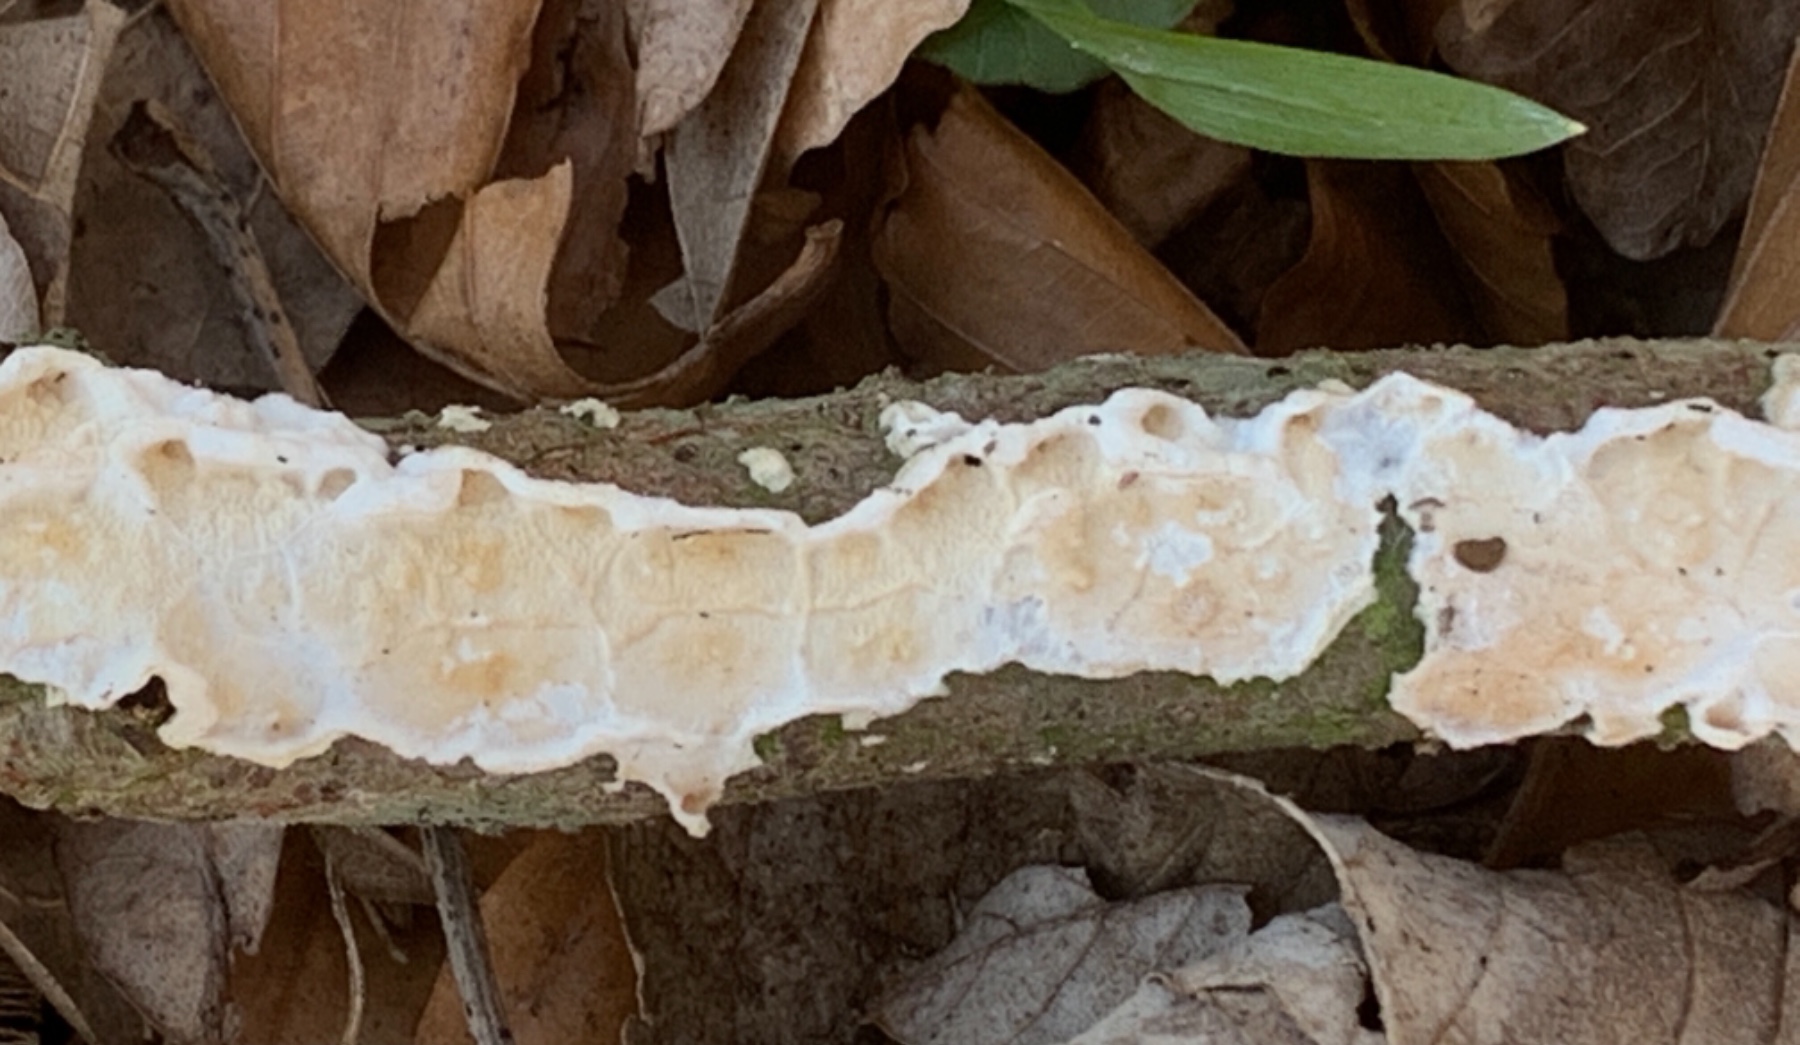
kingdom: Fungi
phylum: Basidiomycota
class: Agaricomycetes
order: Polyporales
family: Irpicaceae
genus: Byssomerulius
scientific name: Byssomerulius corium
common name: læder-åresvamp
